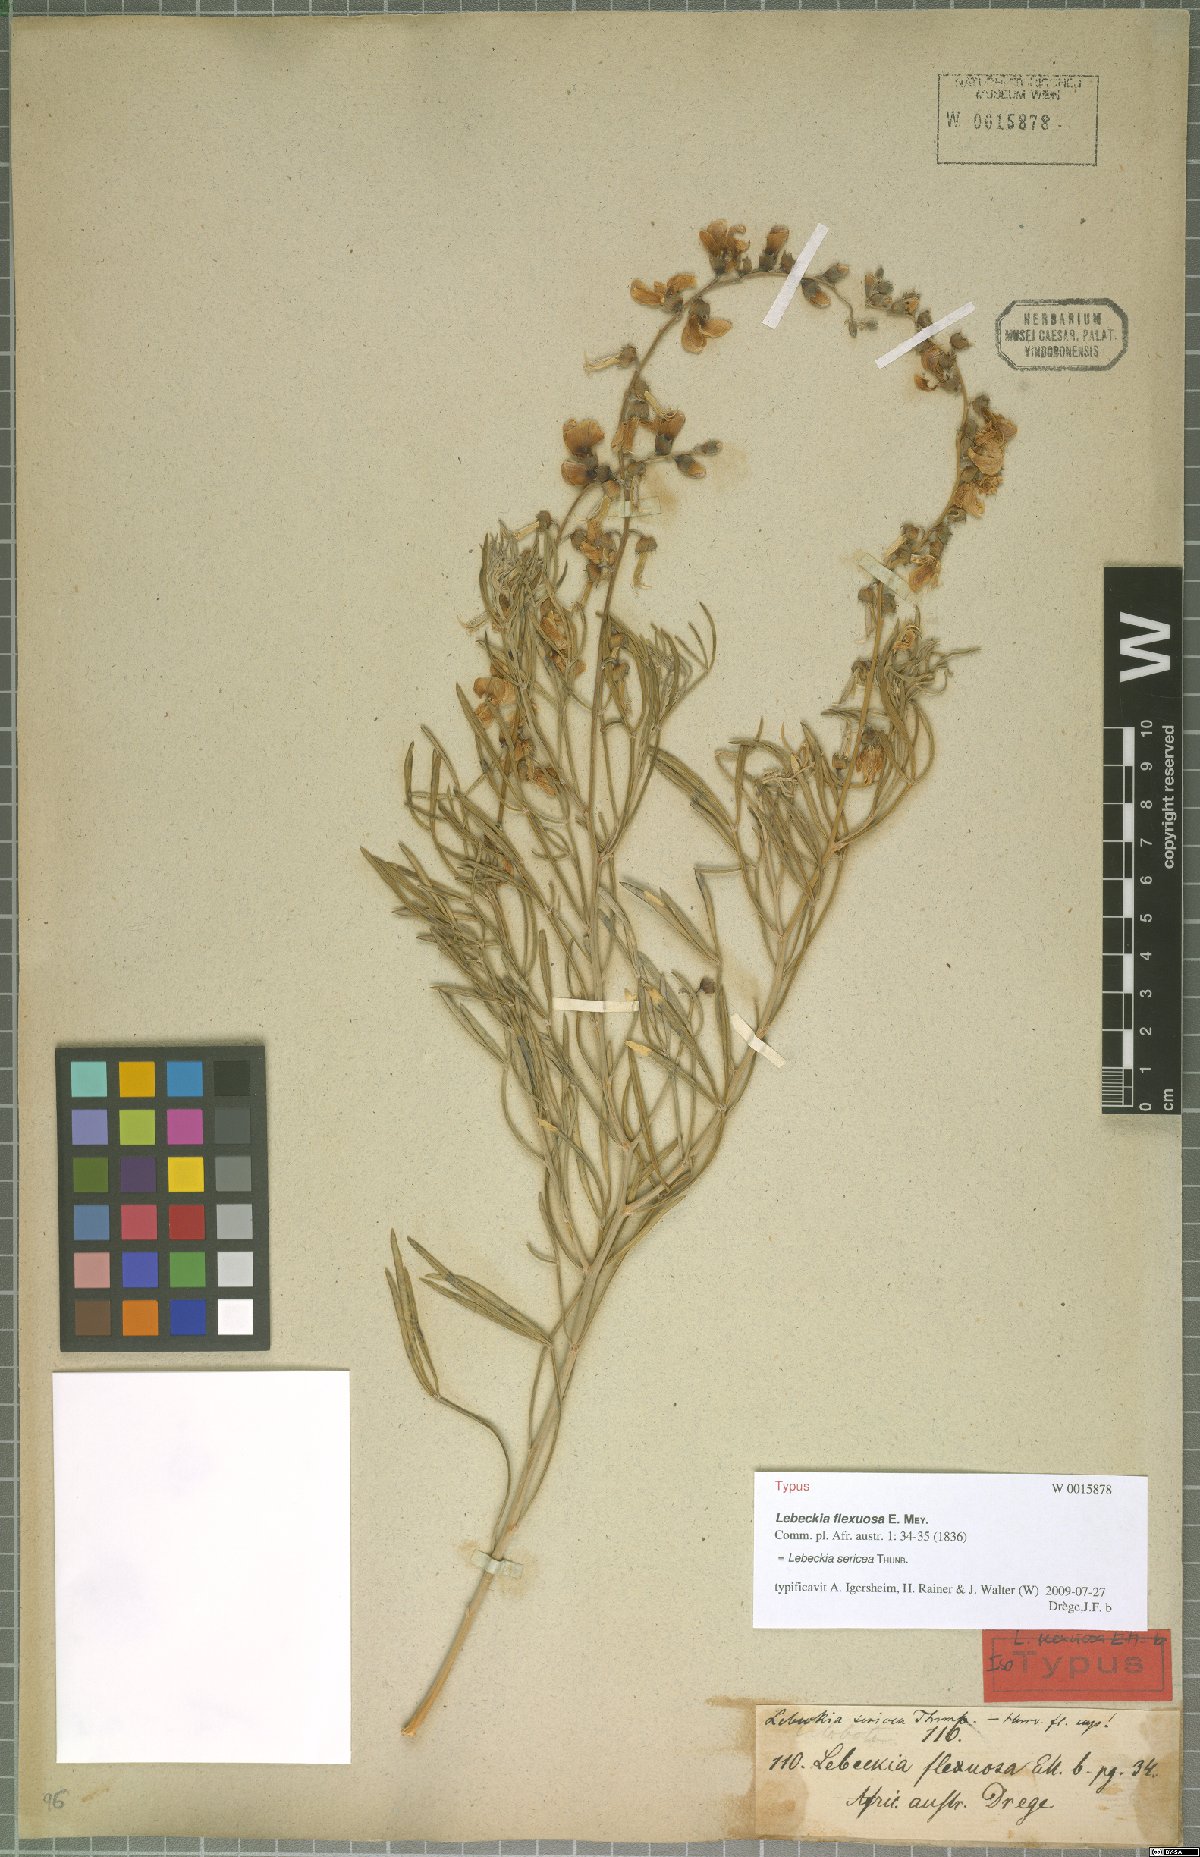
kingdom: Plantae
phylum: Tracheophyta
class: Magnoliopsida
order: Fabales
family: Fabaceae
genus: Calobota
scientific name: Calobota sericea
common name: Silver-pea
